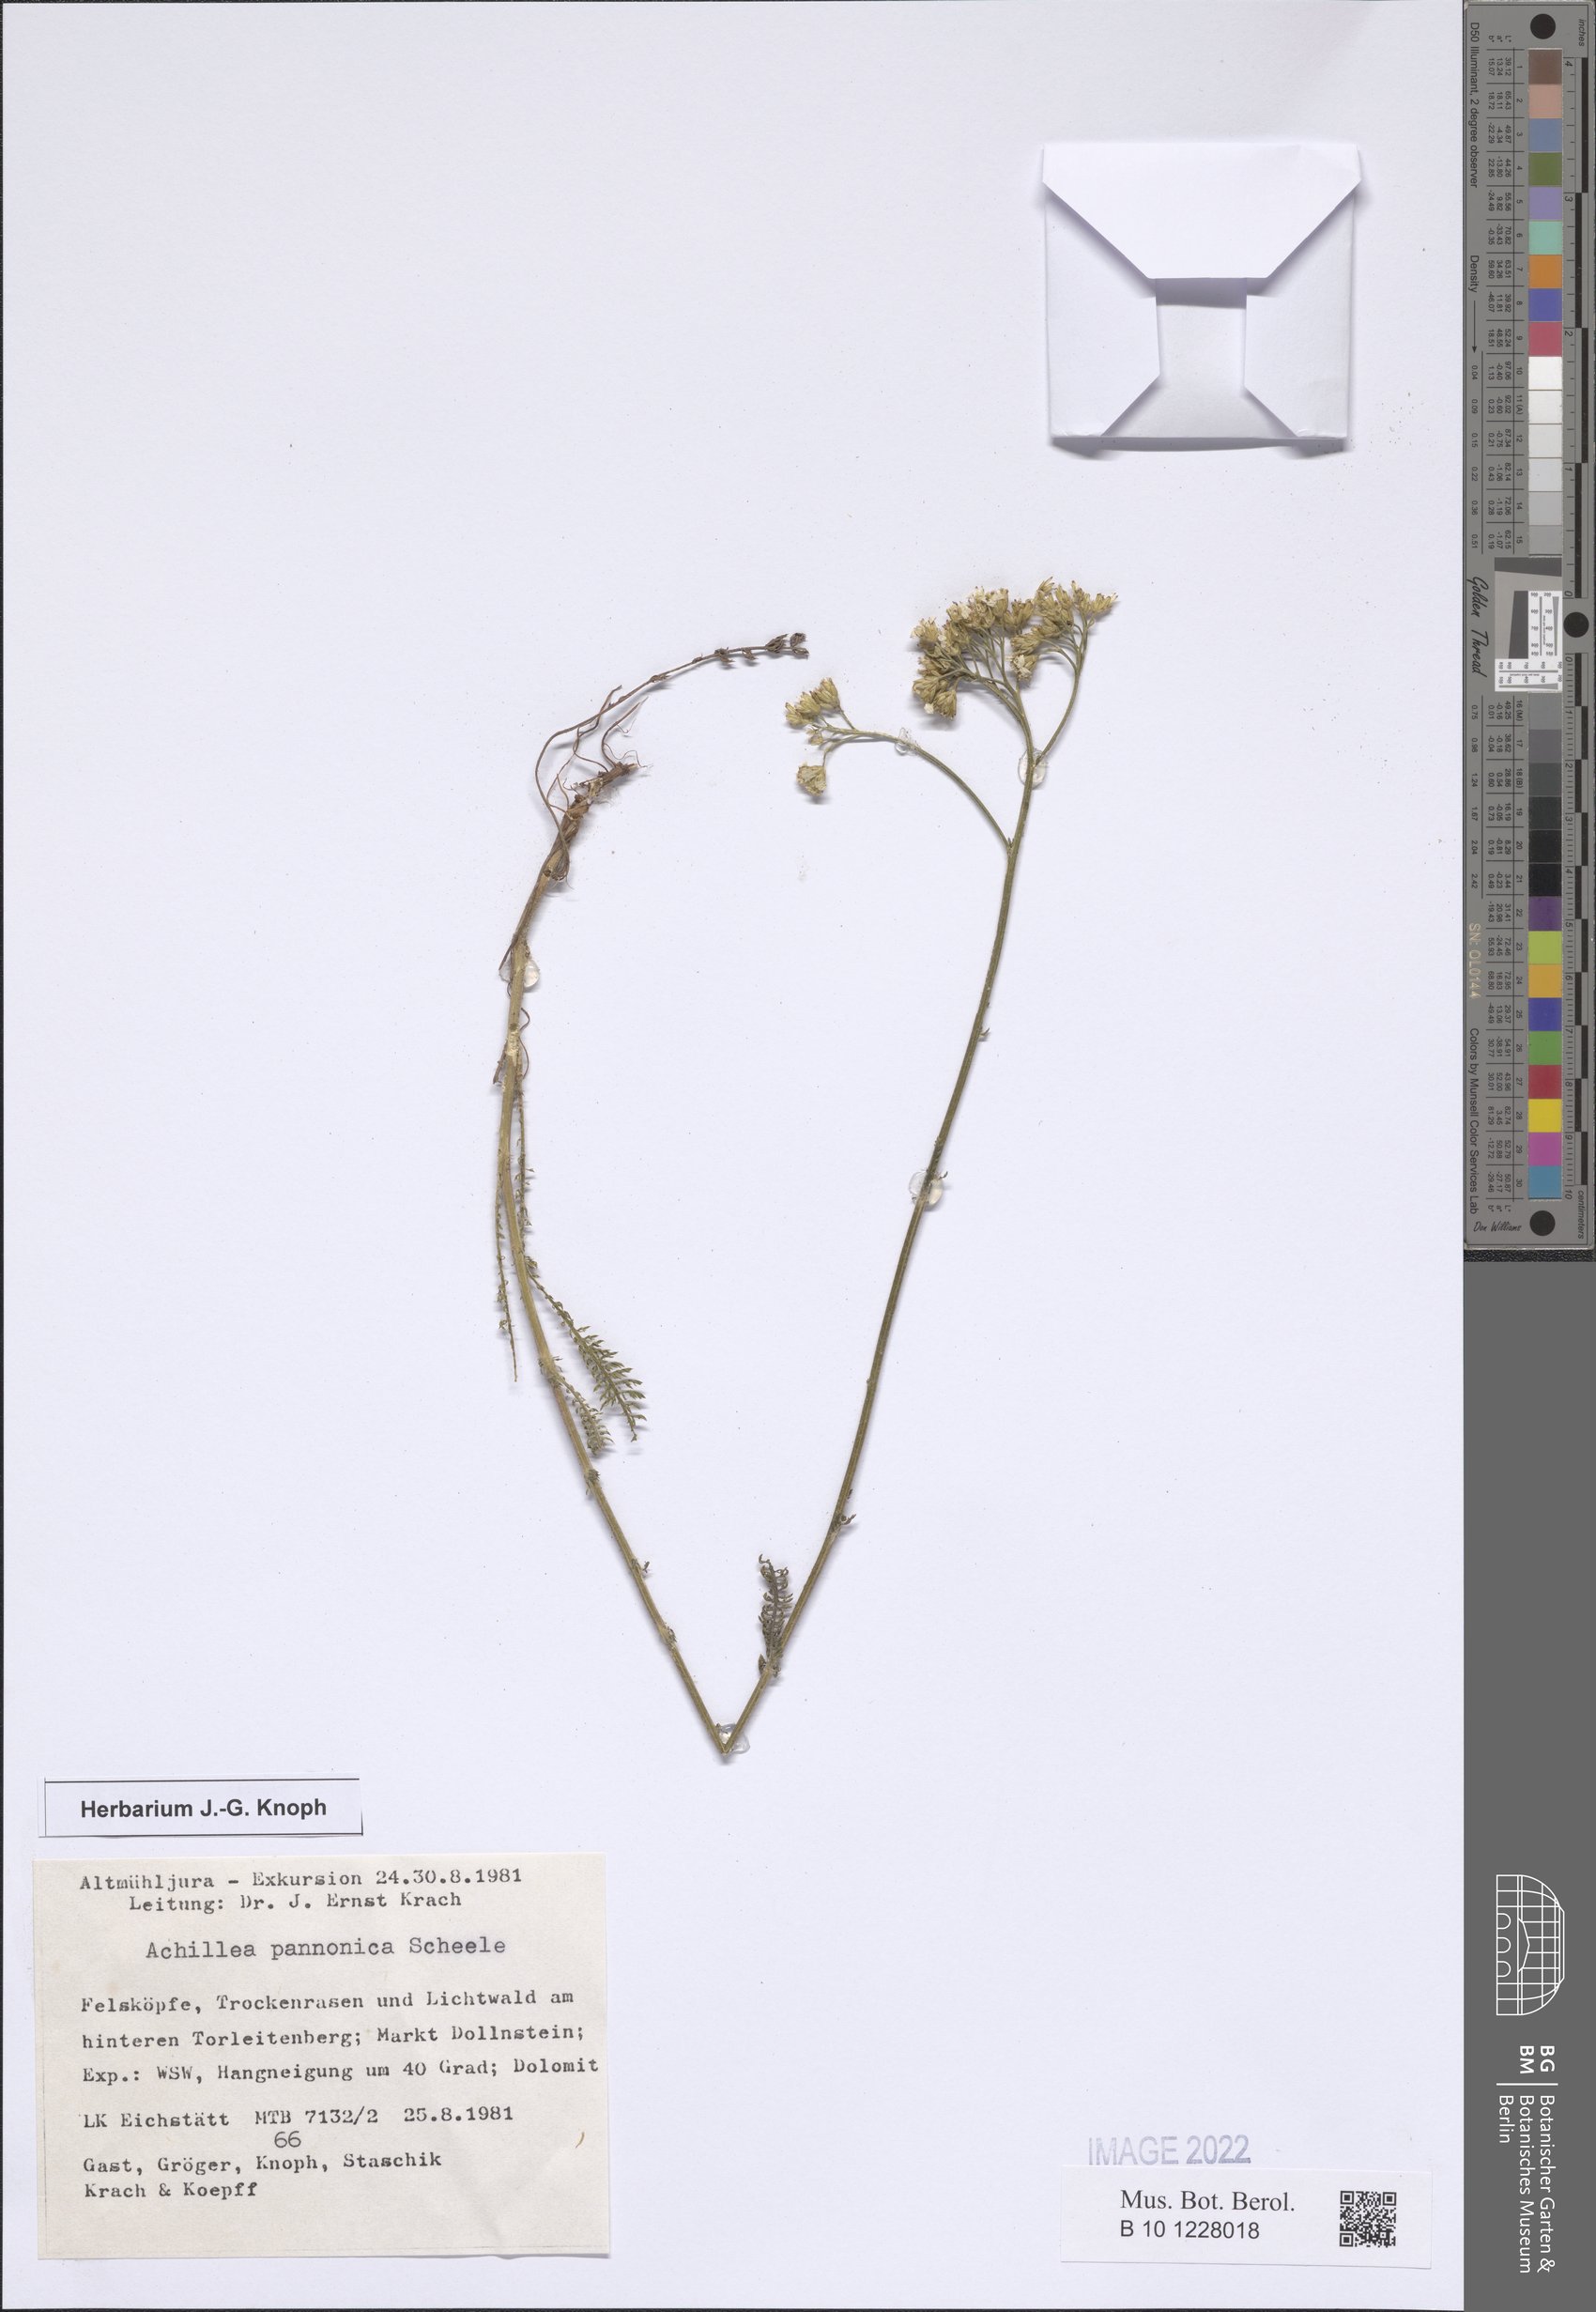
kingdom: Plantae
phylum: Tracheophyta
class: Magnoliopsida
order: Asterales
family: Asteraceae
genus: Achillea
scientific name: Achillea pannonica
